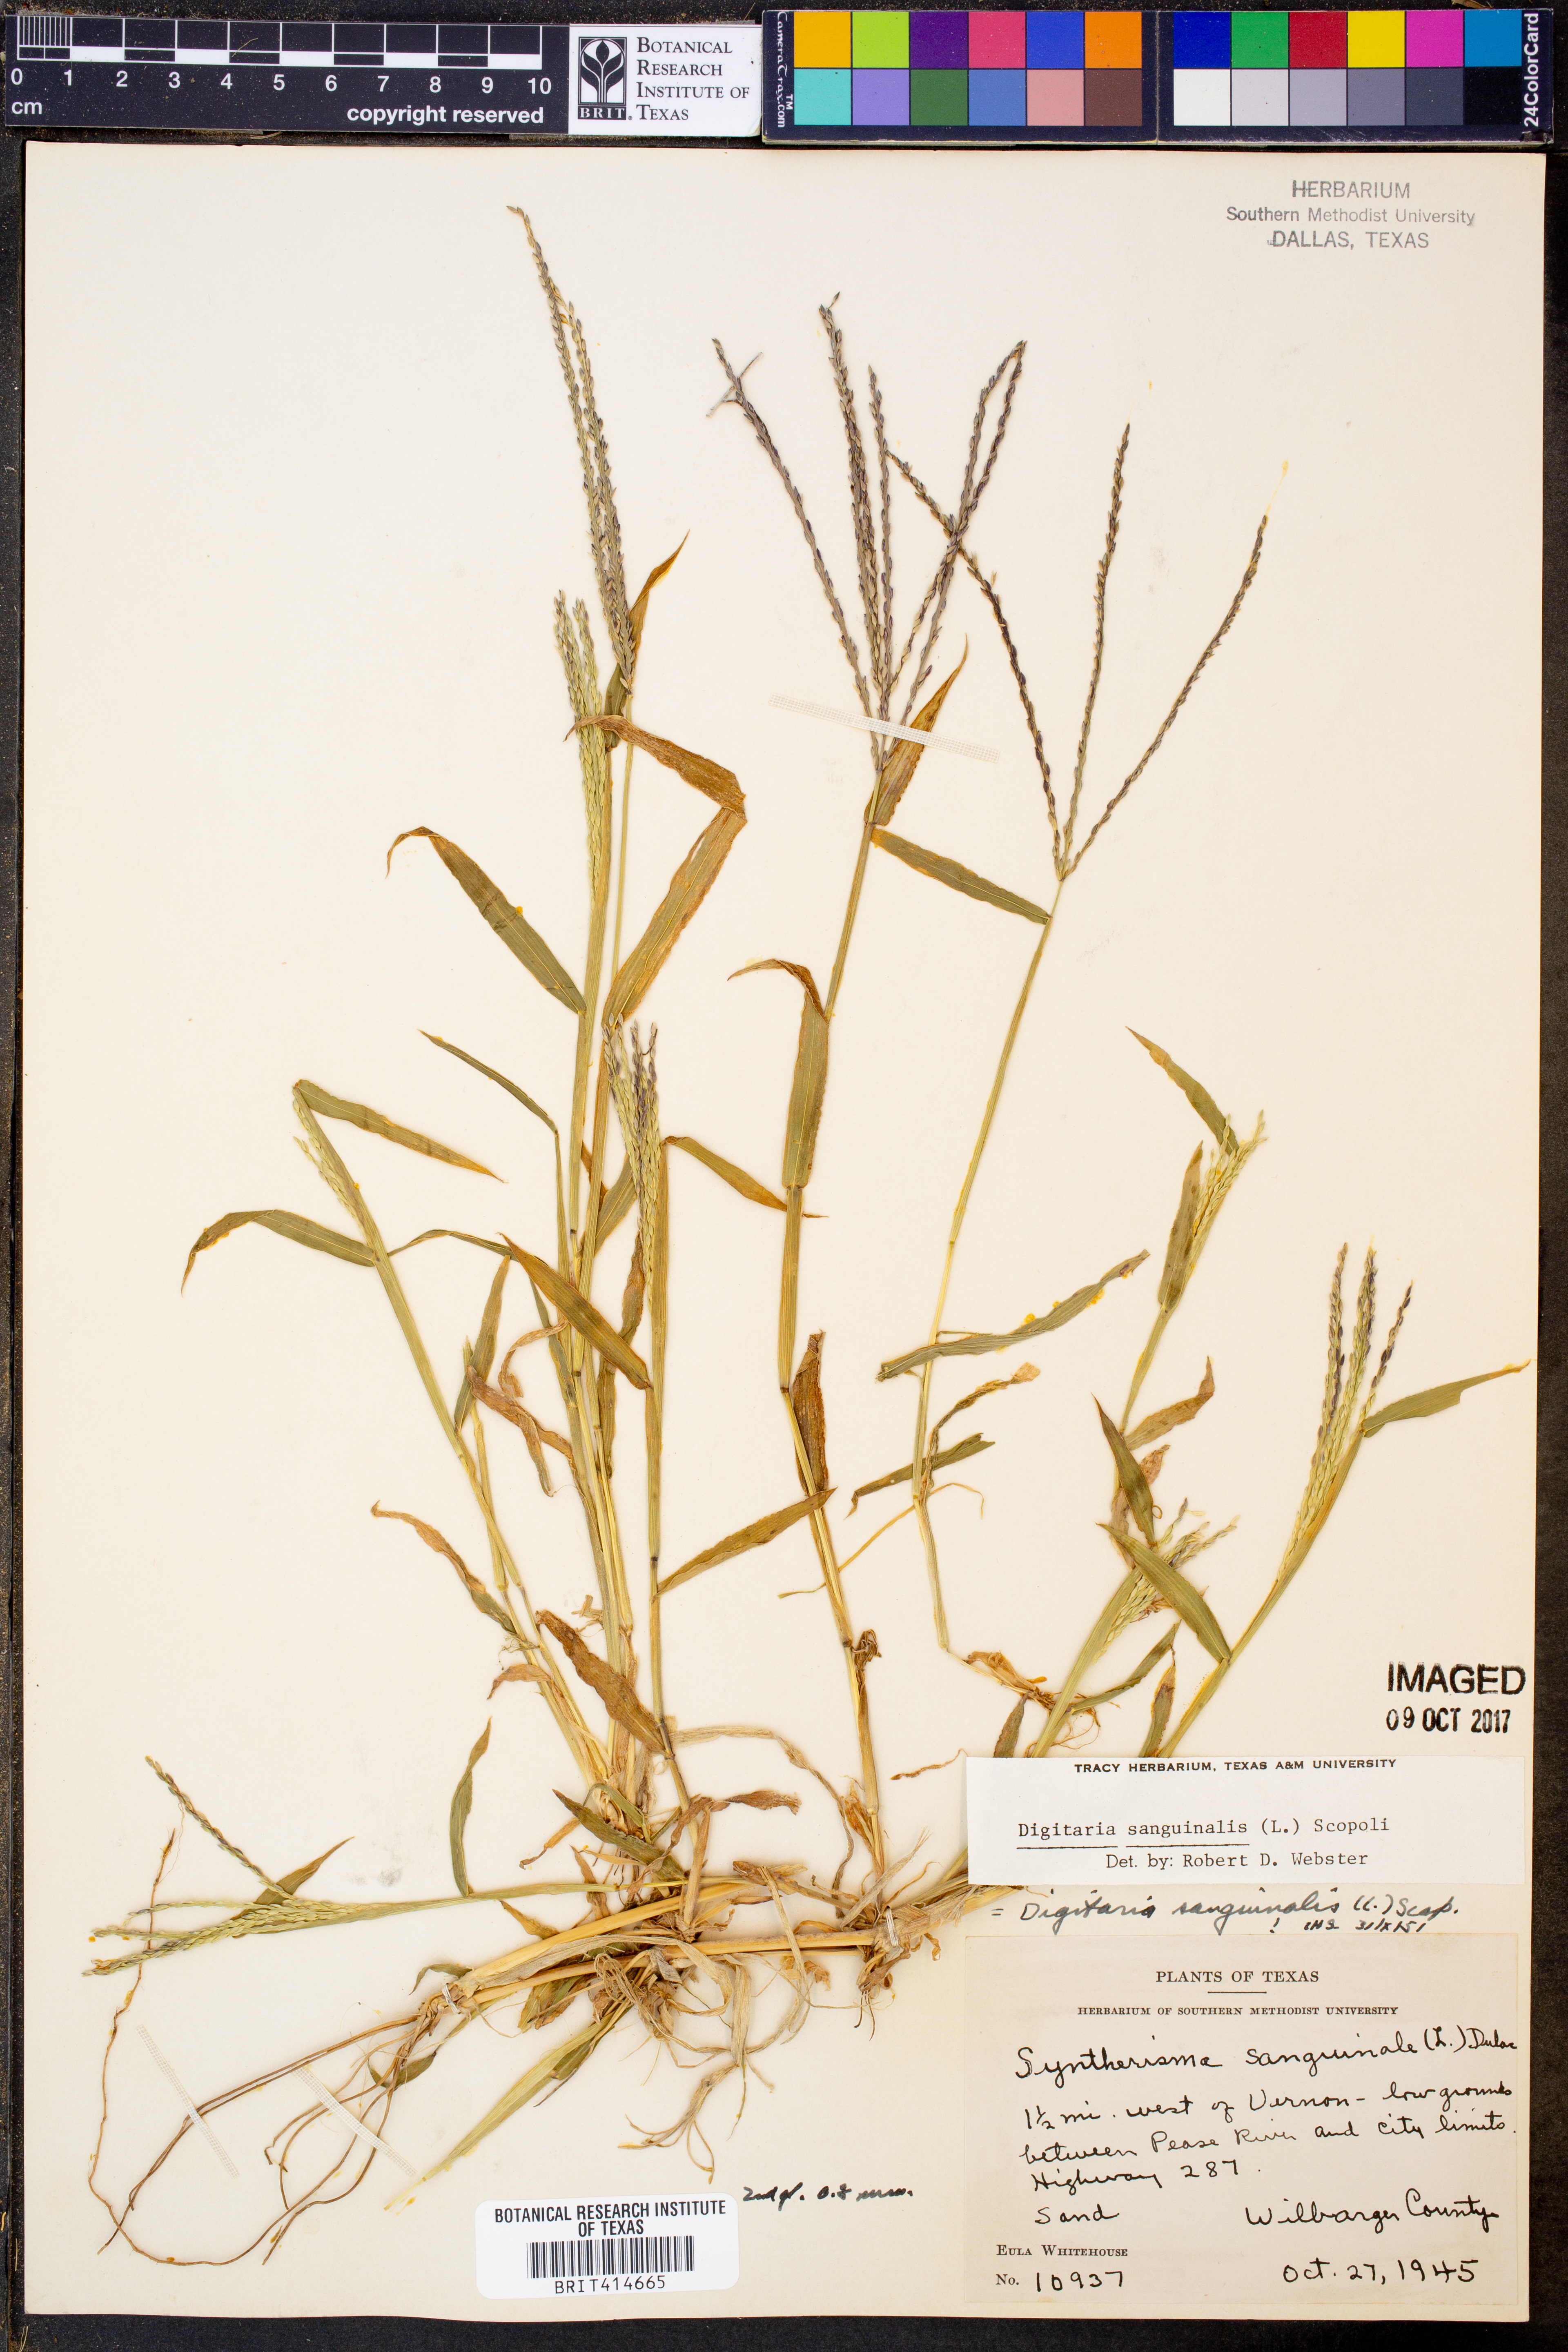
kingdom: Plantae
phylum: Tracheophyta
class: Liliopsida
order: Poales
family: Poaceae
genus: Digitaria
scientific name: Digitaria sanguinalis
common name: Hairy crabgrass
